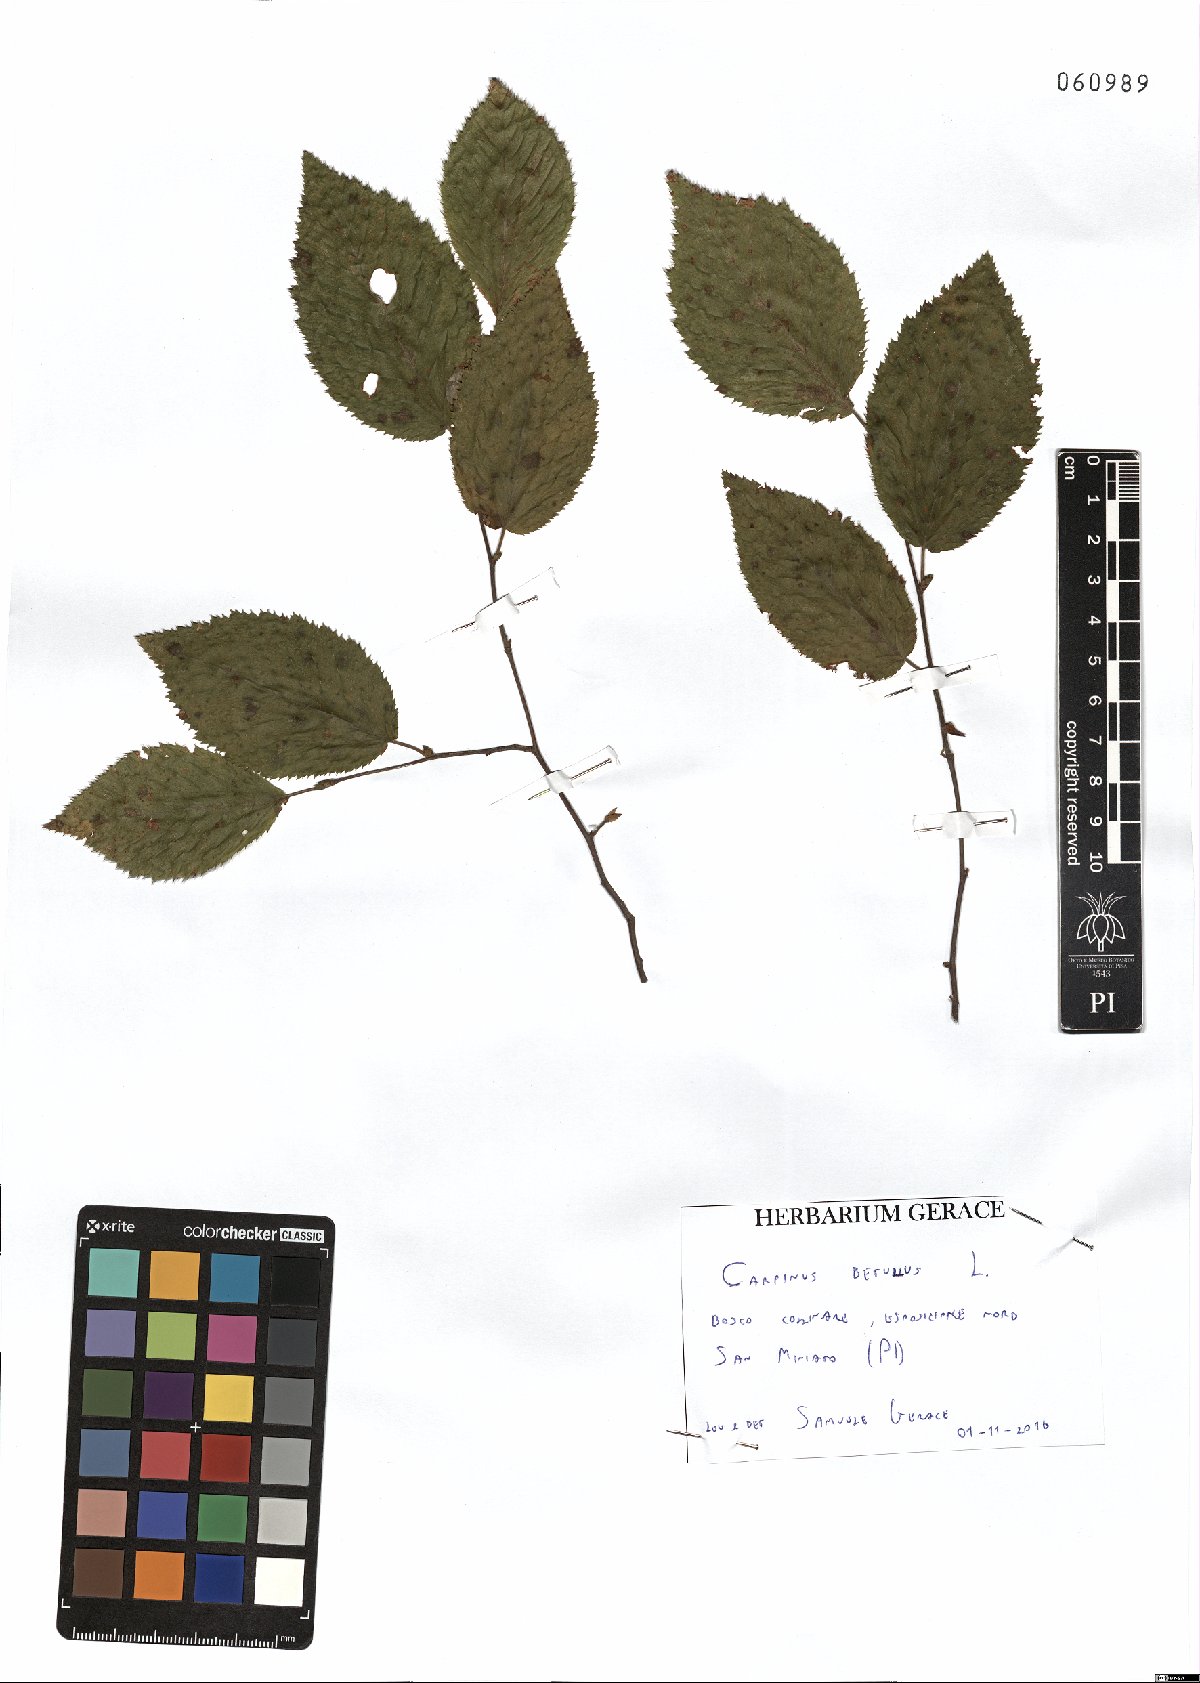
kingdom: Plantae
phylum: Tracheophyta
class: Magnoliopsida
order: Fagales
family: Betulaceae
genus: Carpinus
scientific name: Carpinus betulus
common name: Hornbeam
